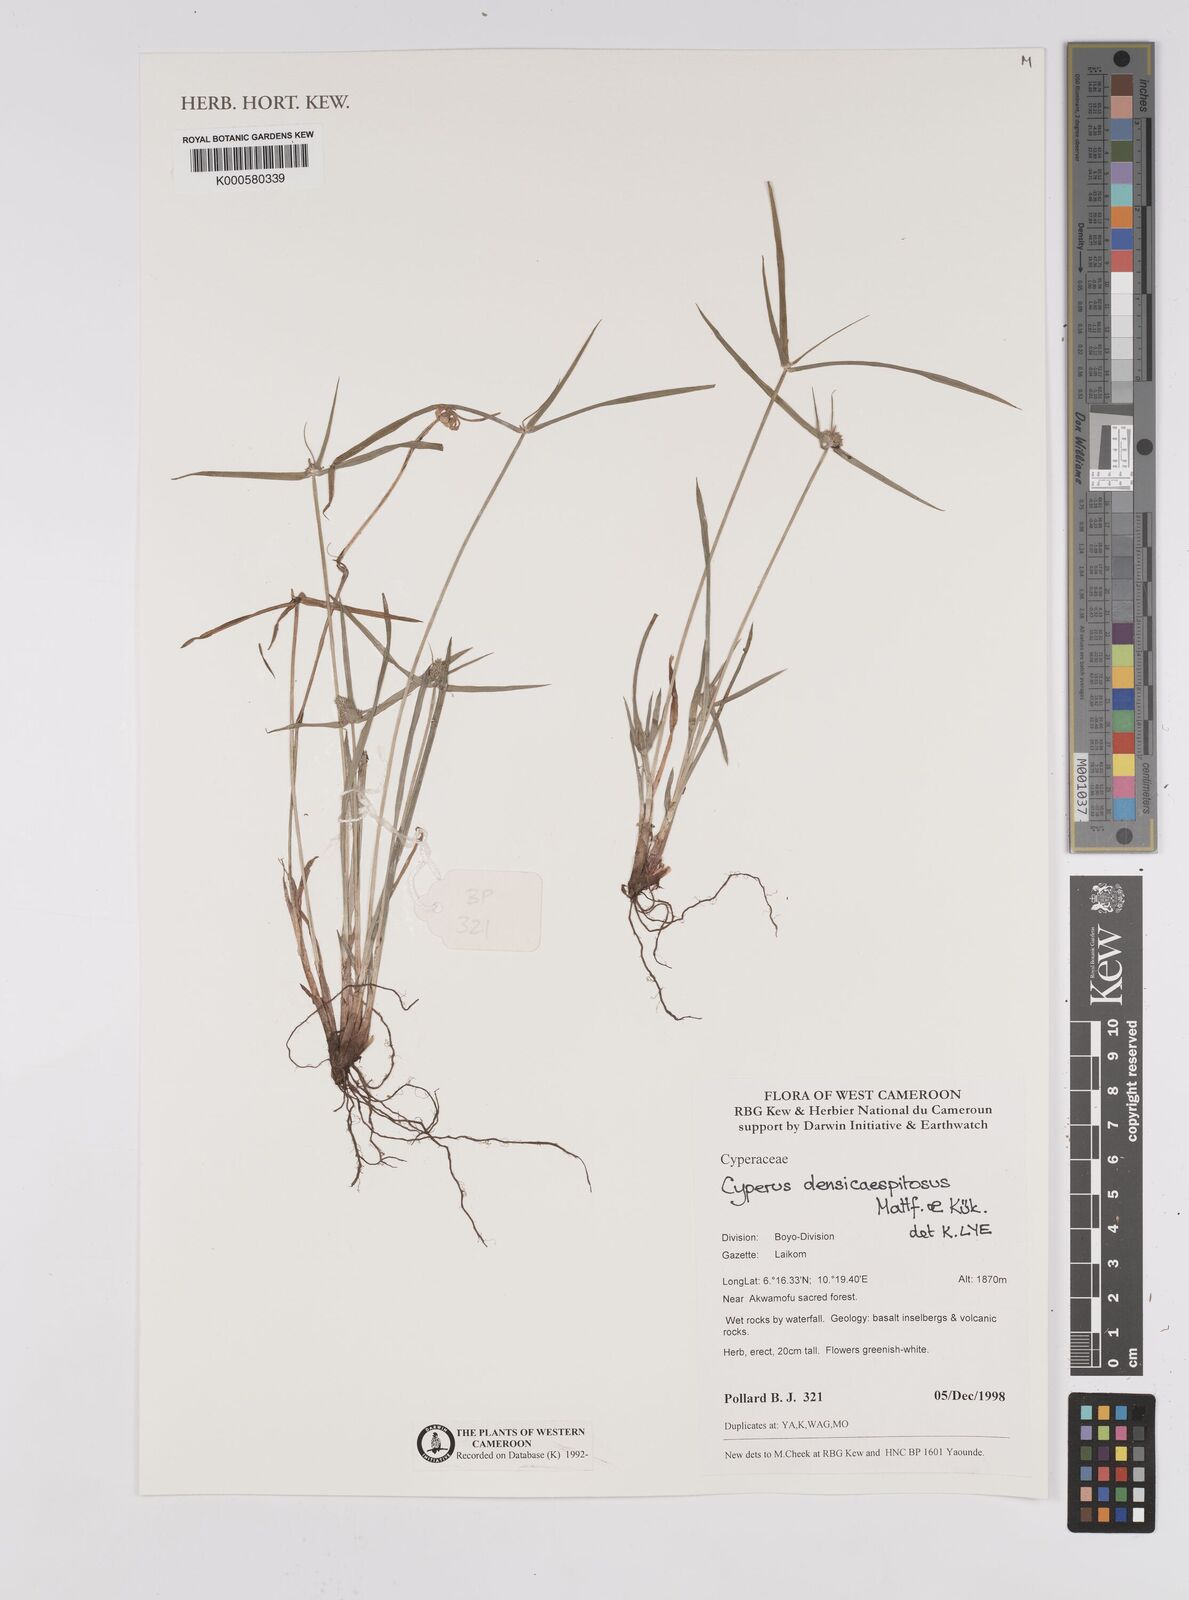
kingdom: Plantae
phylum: Tracheophyta
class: Liliopsida
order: Poales
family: Cyperaceae
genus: Cyperus
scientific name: Cyperus
